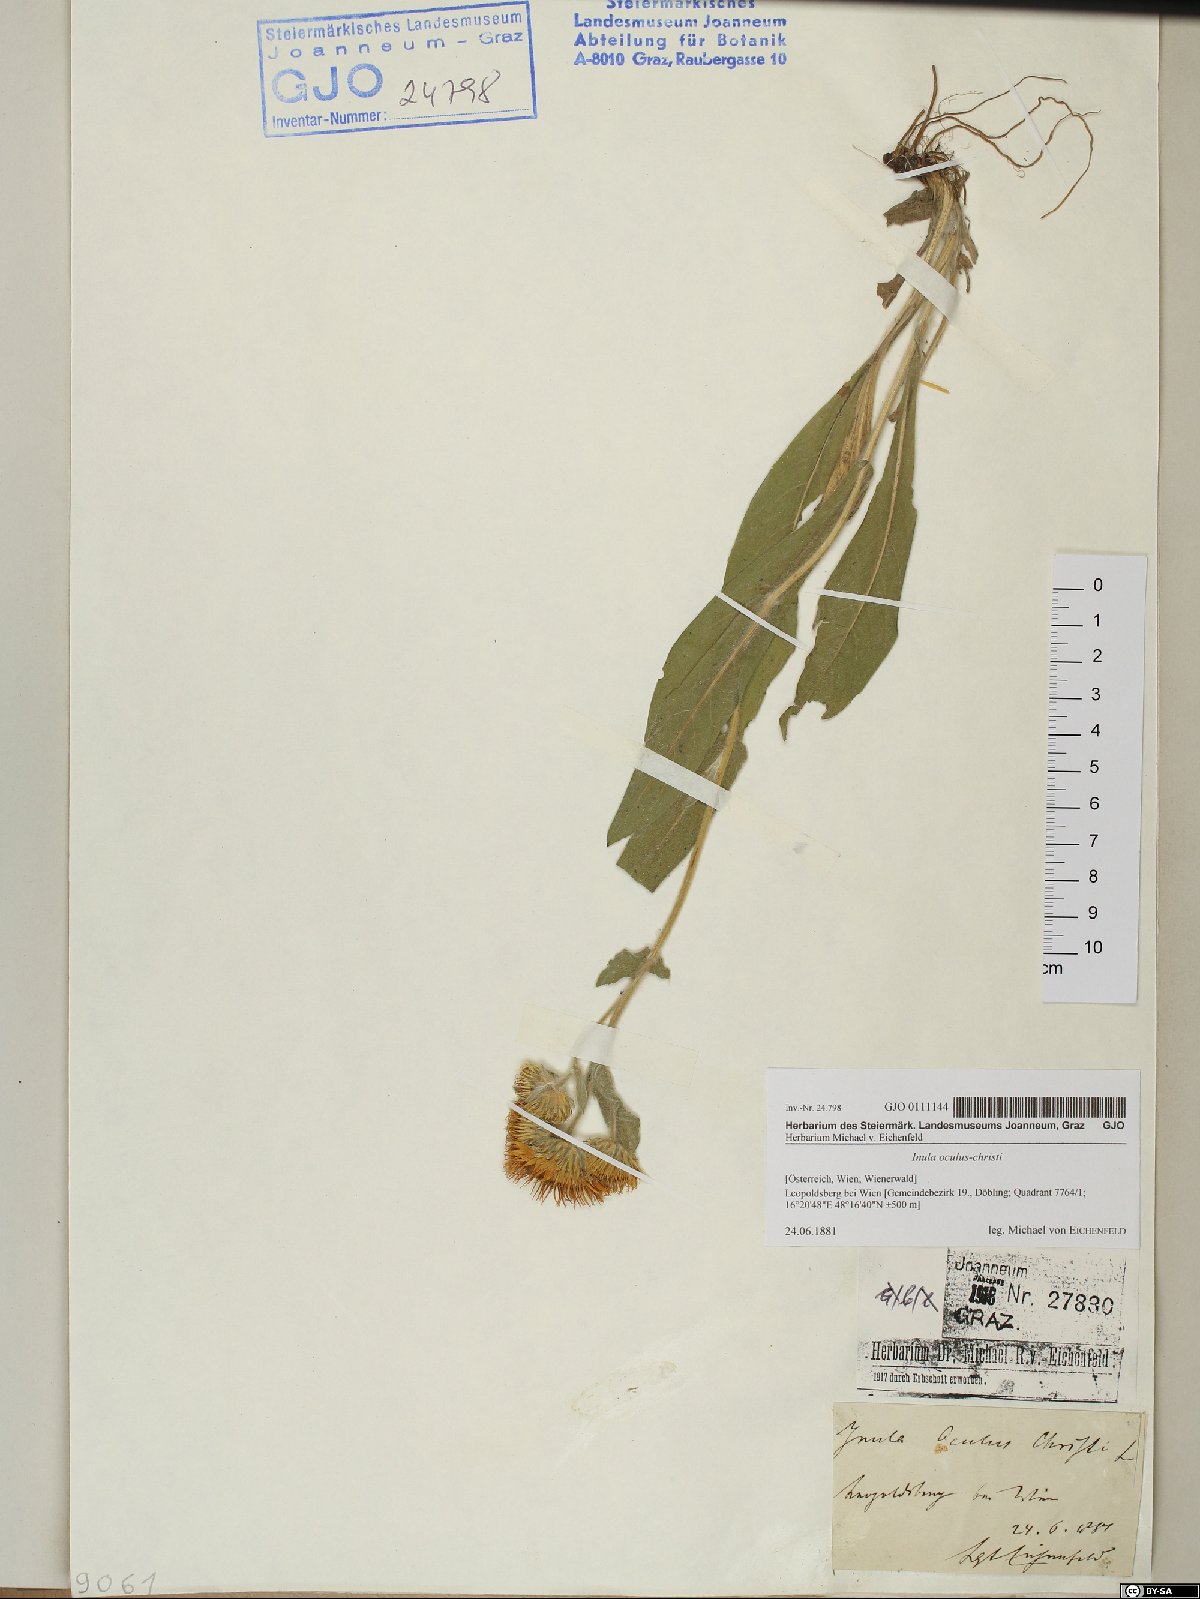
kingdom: Plantae
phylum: Tracheophyta
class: Magnoliopsida
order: Asterales
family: Asteraceae
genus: Pentanema
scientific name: Pentanema oculus-christi
